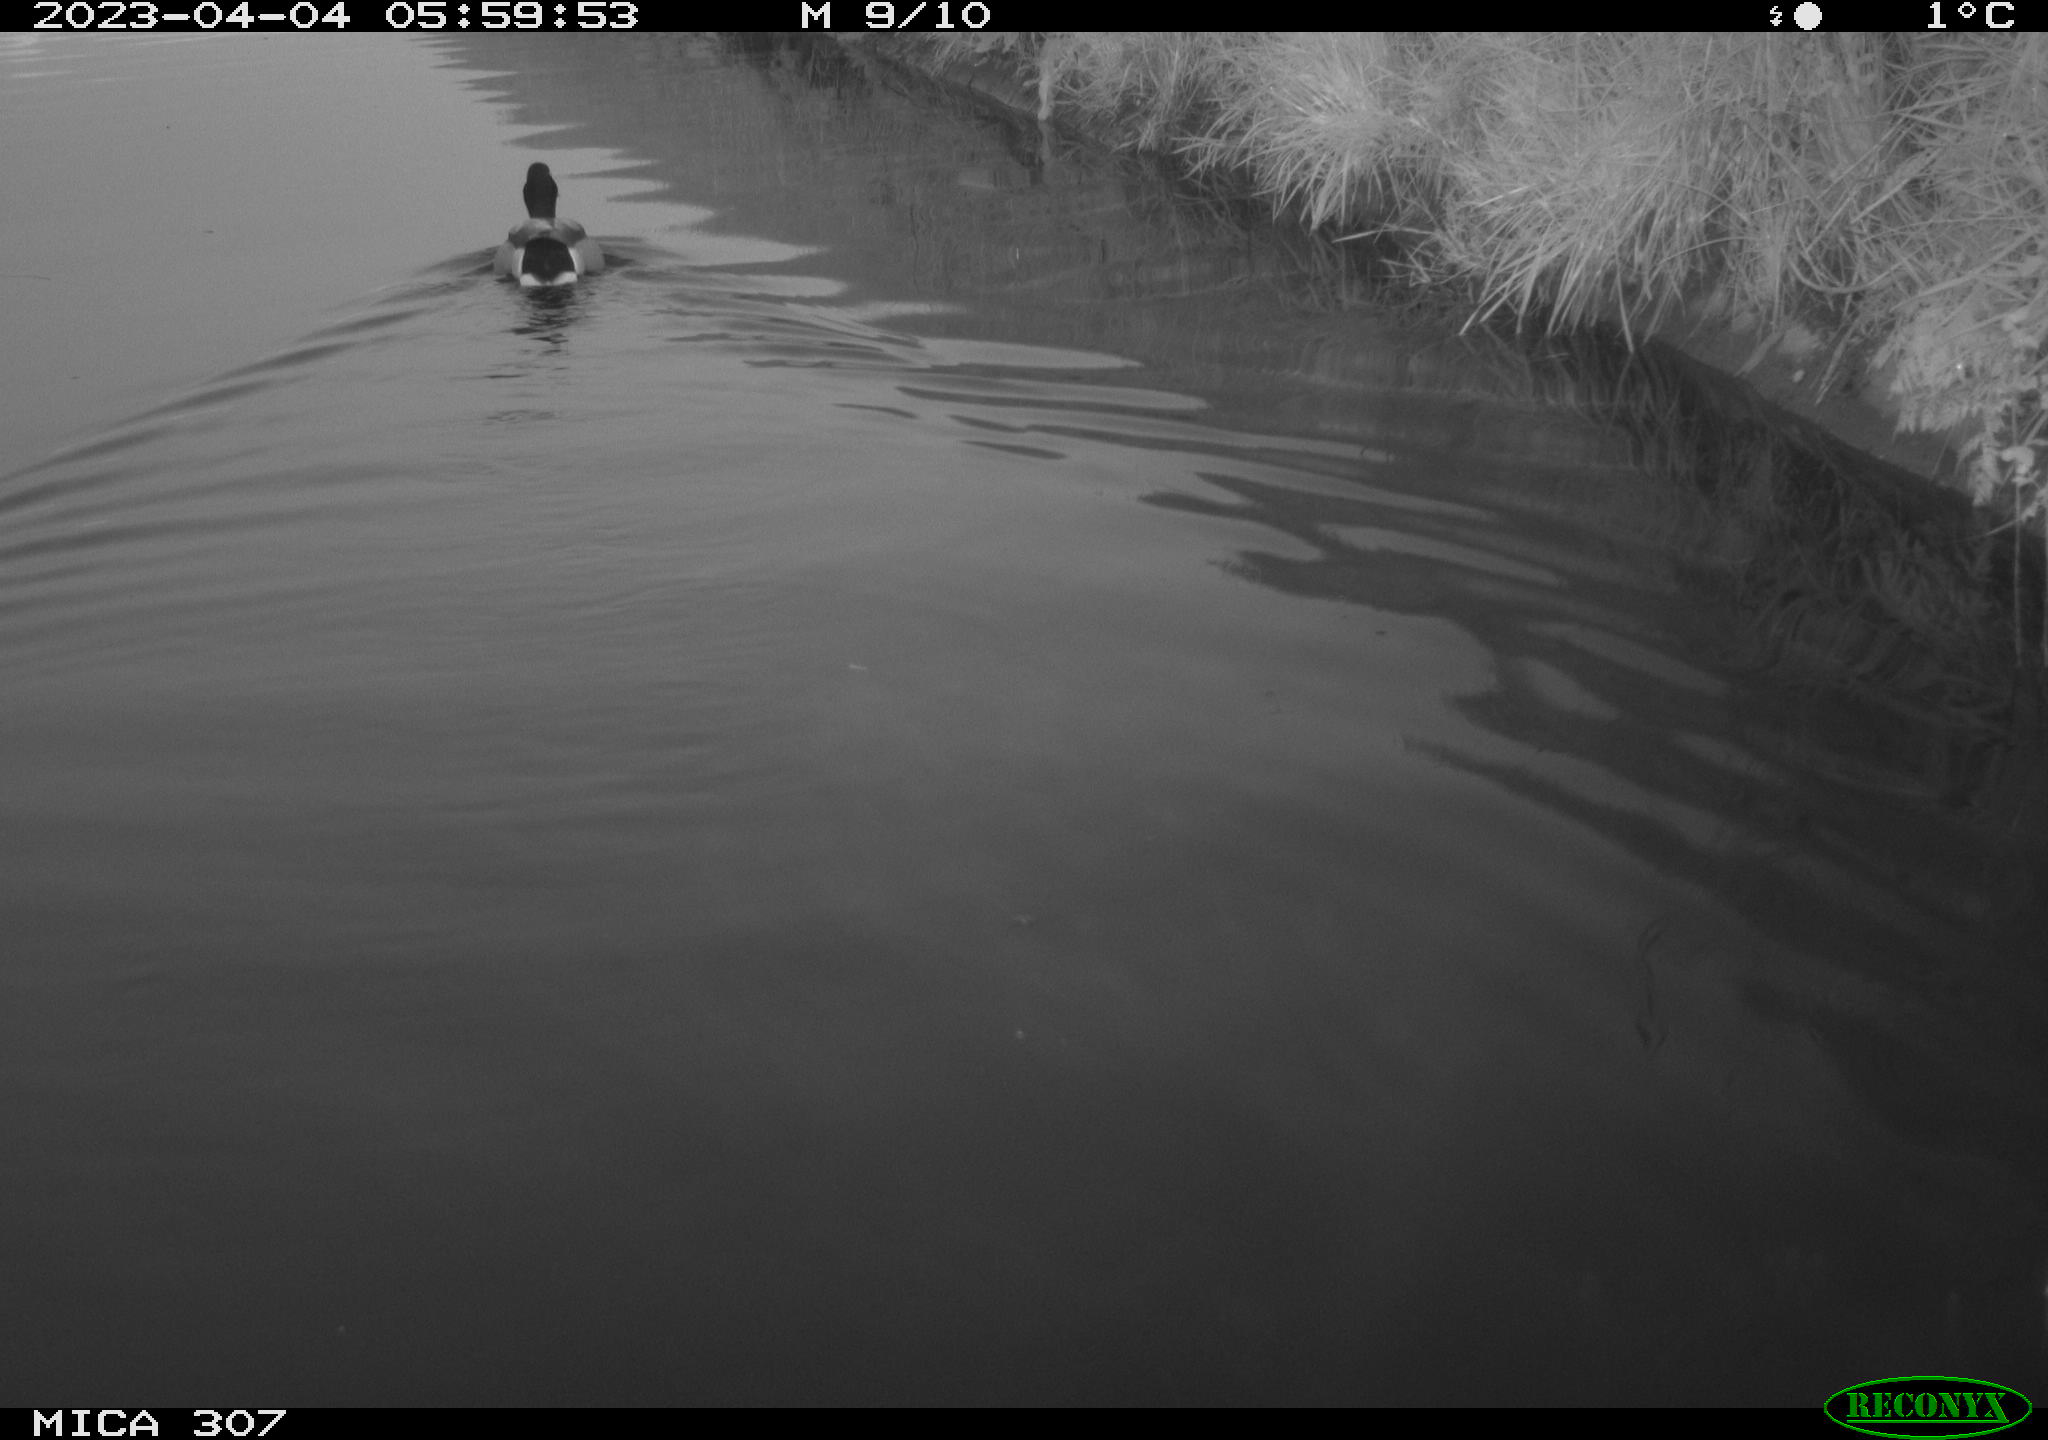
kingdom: Animalia
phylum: Chordata
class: Aves
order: Anseriformes
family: Anatidae
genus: Anas
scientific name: Anas
